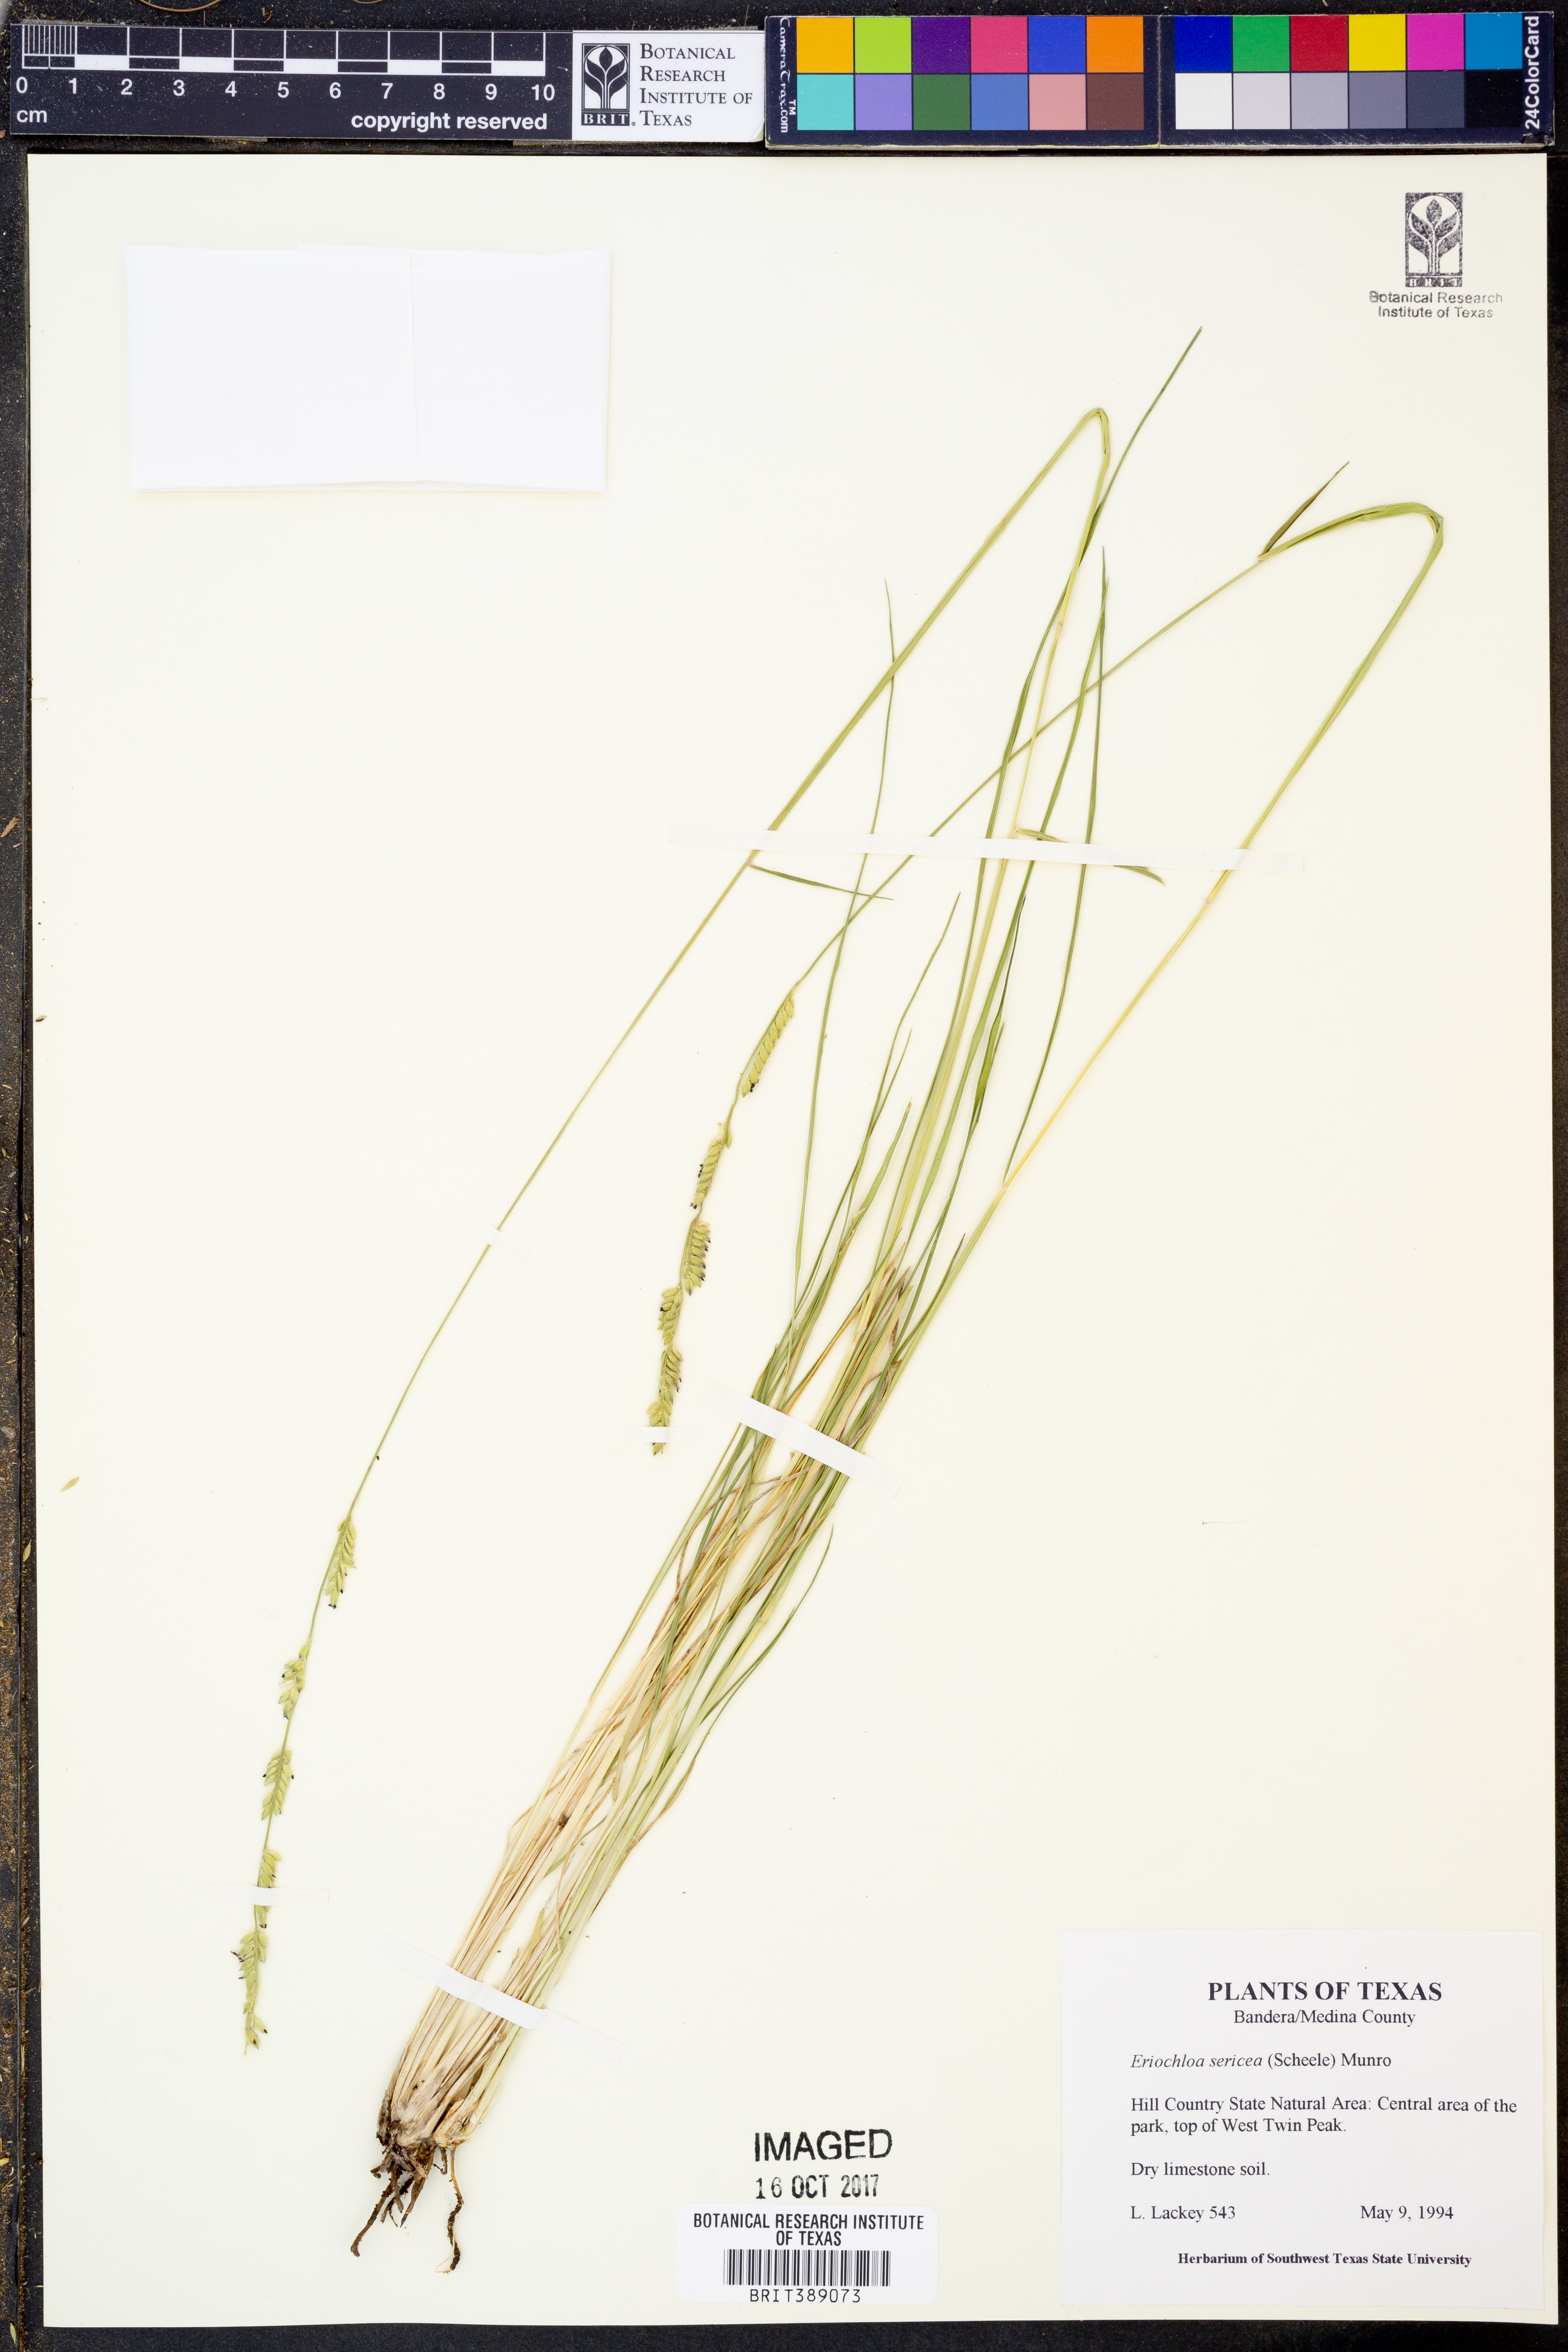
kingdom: Plantae
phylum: Tracheophyta
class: Liliopsida
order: Poales
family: Poaceae
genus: Eriochloa
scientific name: Eriochloa sericea
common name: Texas cup grass
